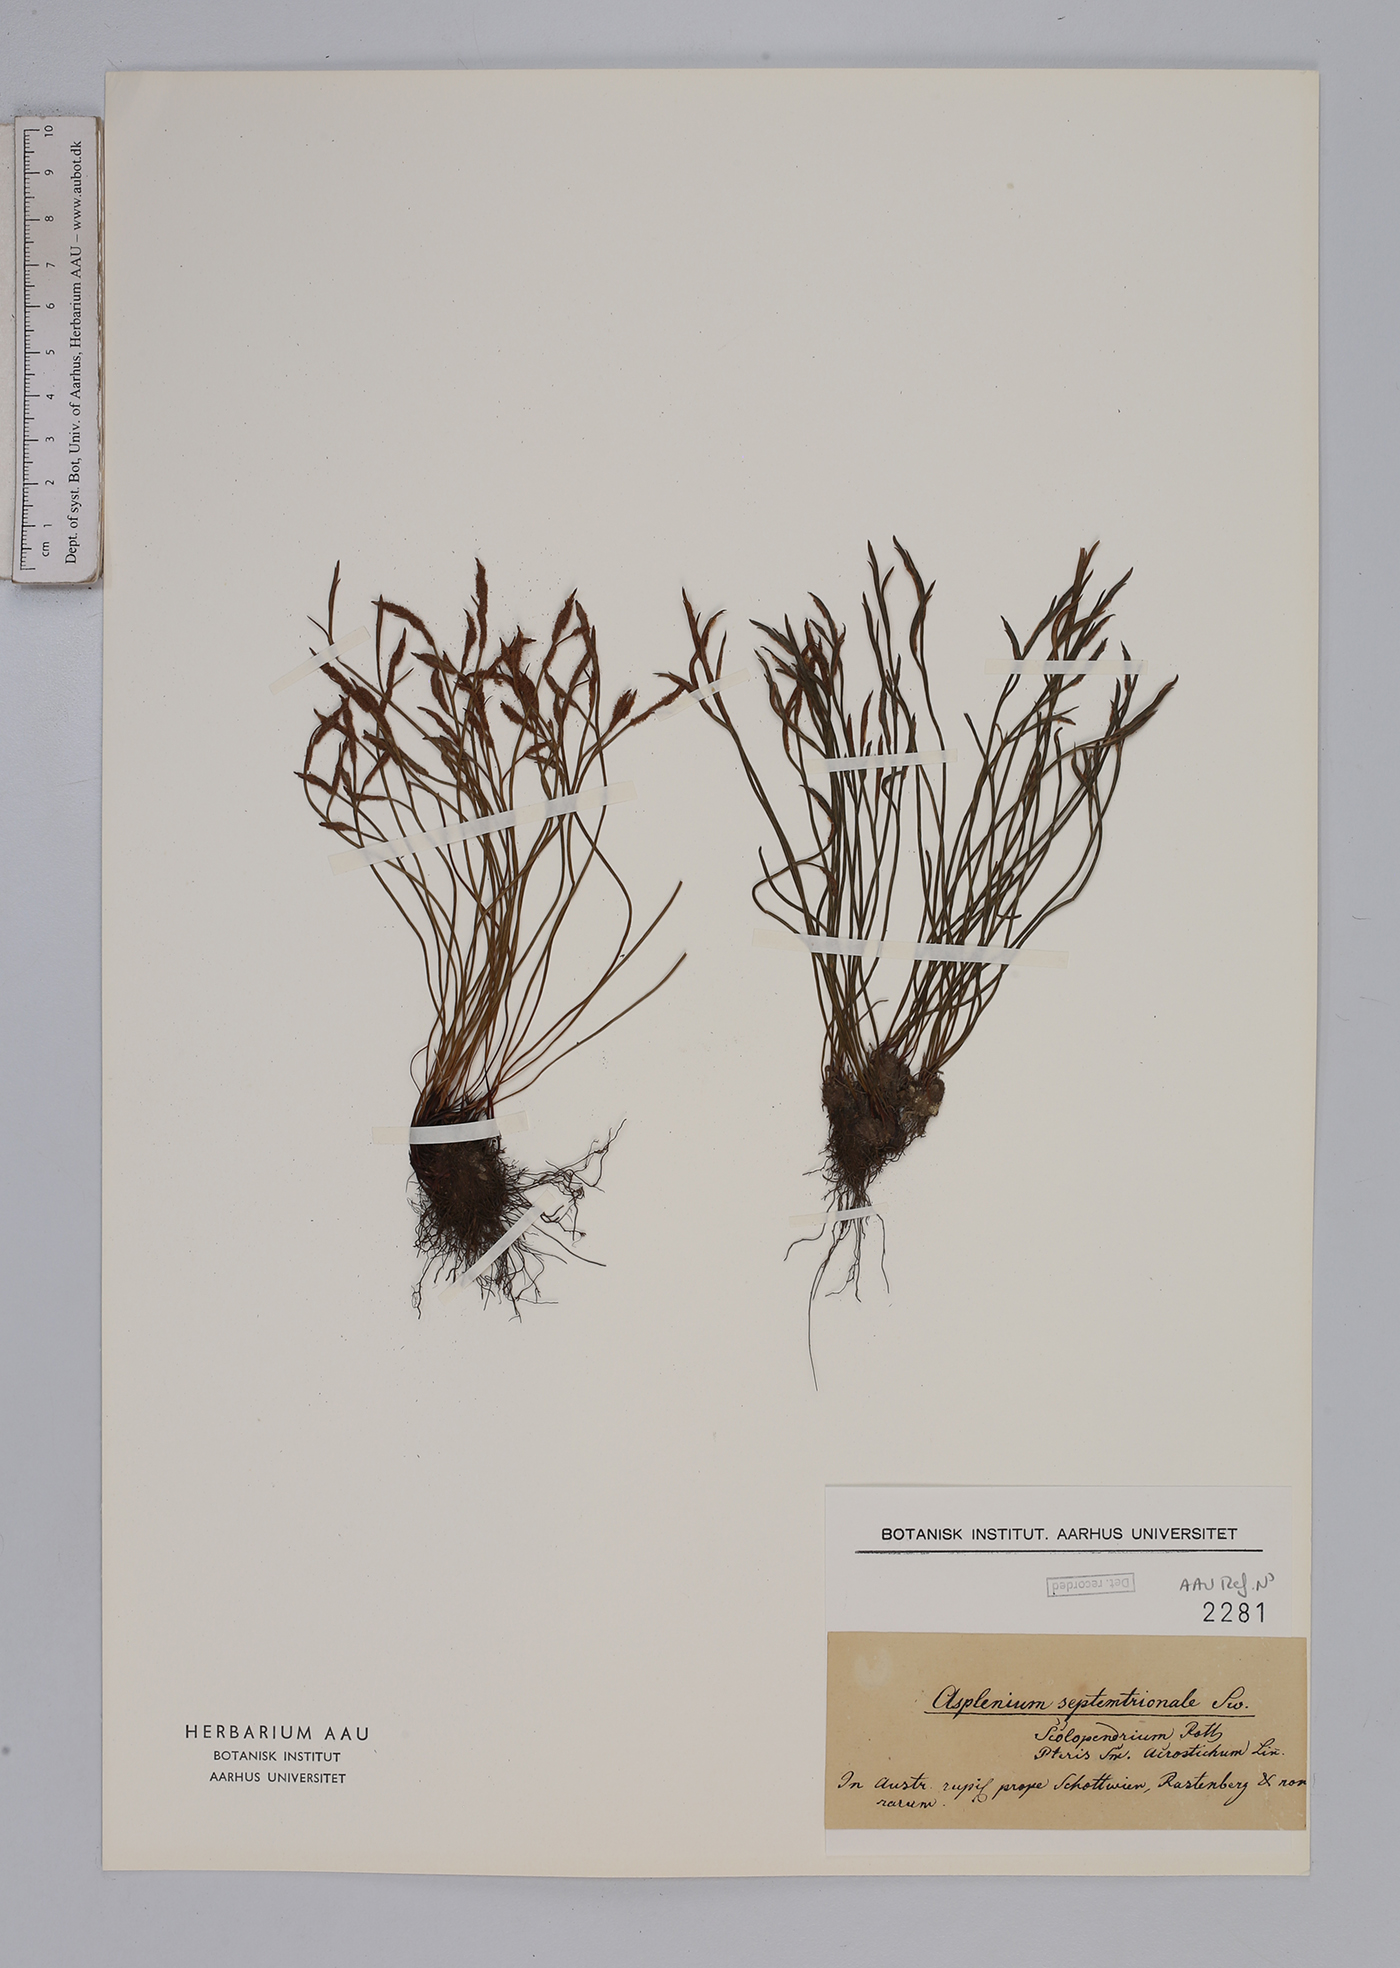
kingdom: Plantae
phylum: Tracheophyta
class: Polypodiopsida
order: Polypodiales
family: Aspleniaceae
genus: Asplenium
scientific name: Asplenium septentrionale
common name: Forked spleenwort
